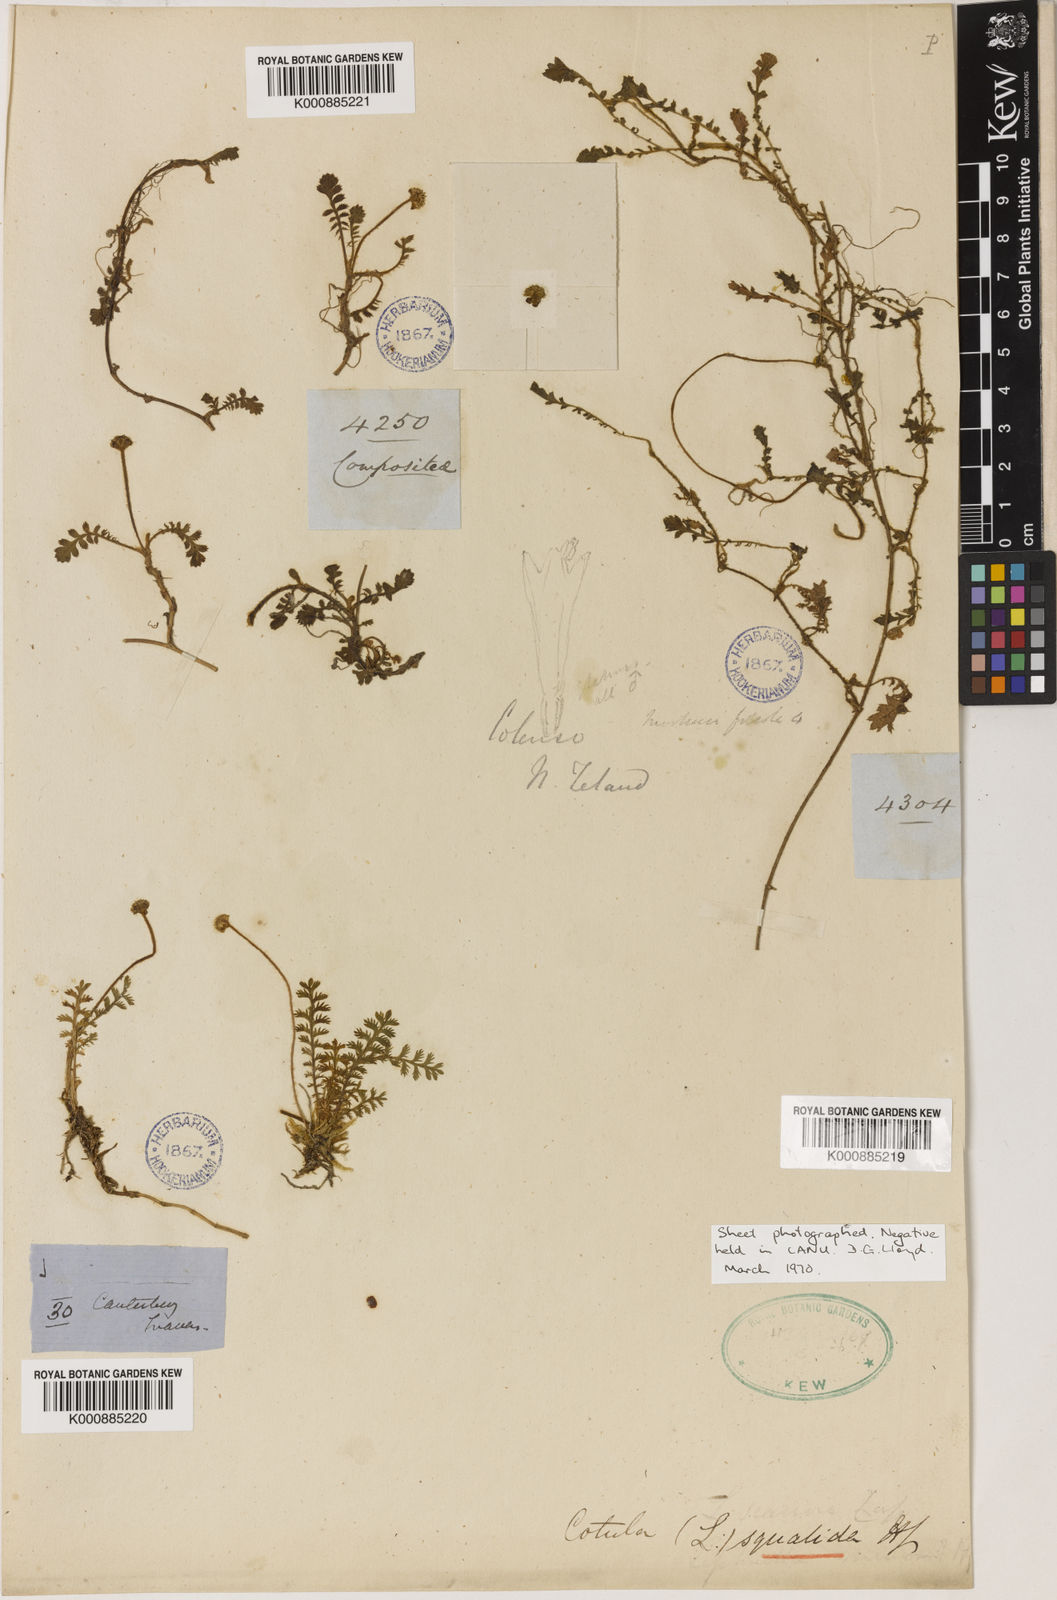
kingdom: Plantae
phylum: Tracheophyta
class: Magnoliopsida
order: Asterales
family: Asteraceae
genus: Leptinella
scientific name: Leptinella squalida
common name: New zealand brass-buttons
